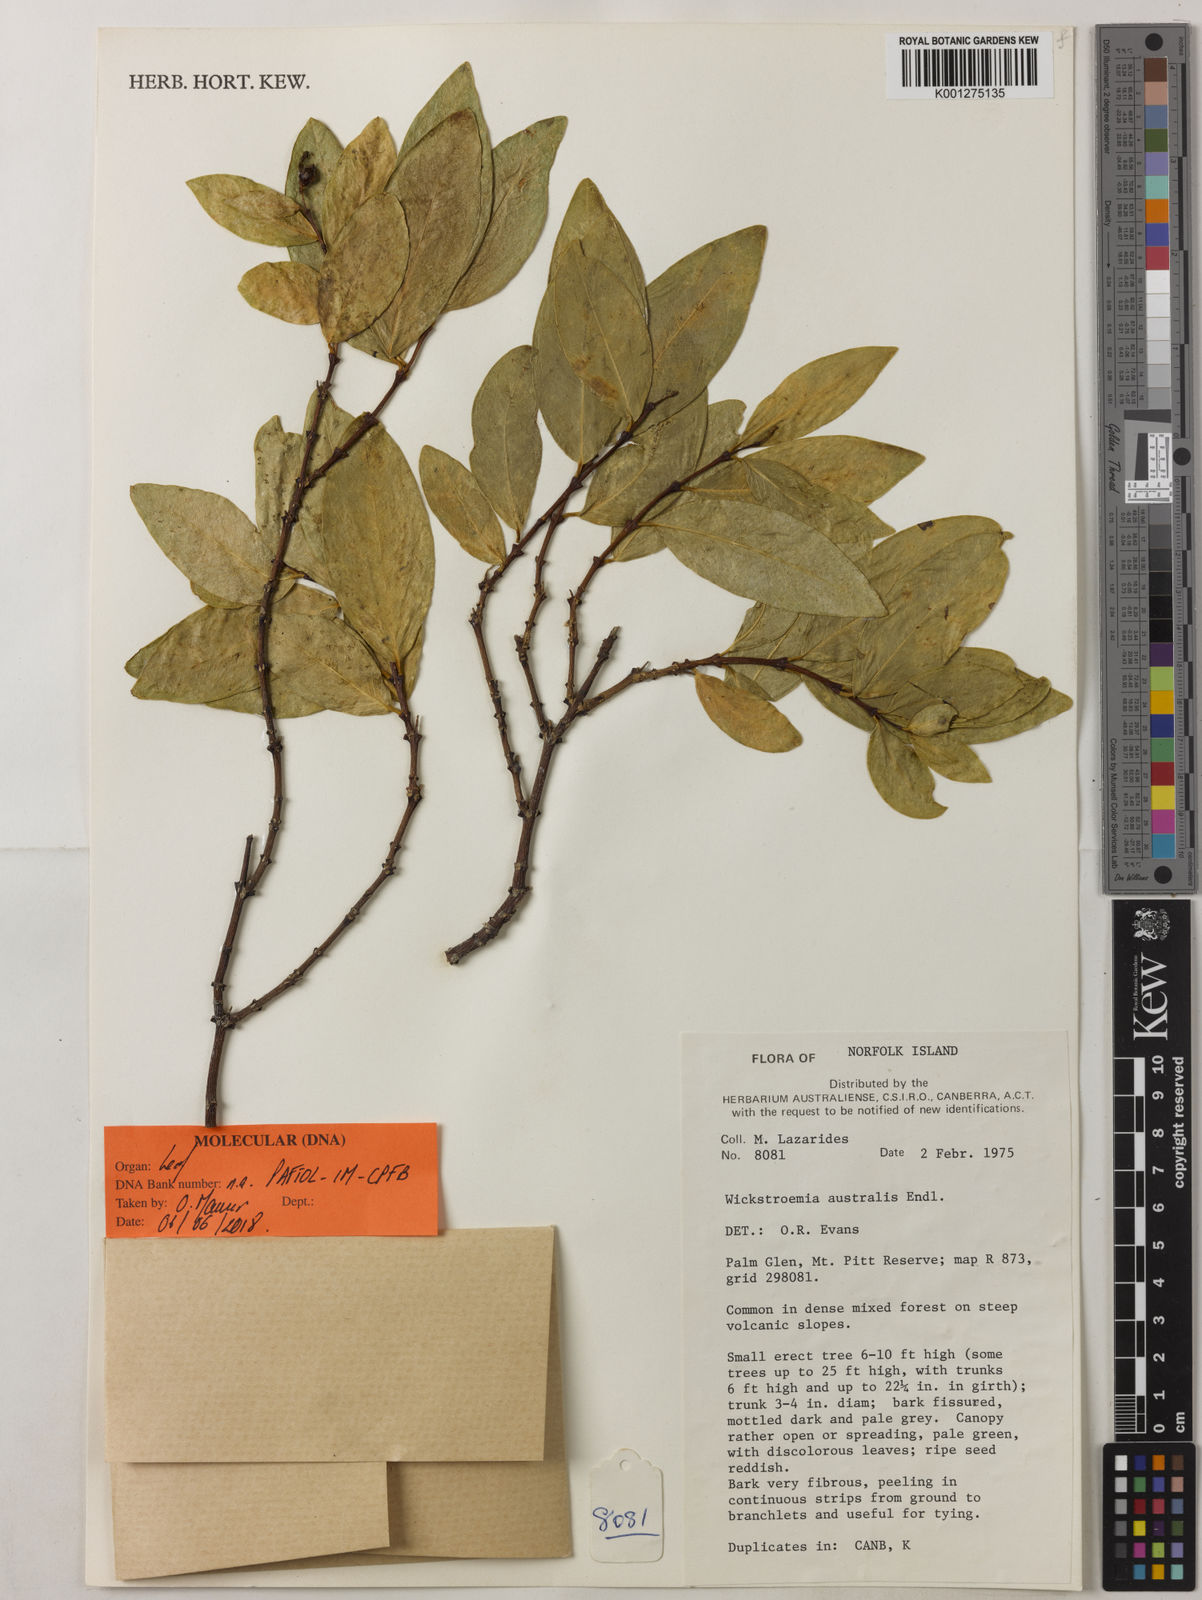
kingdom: Plantae
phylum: Tracheophyta
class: Magnoliopsida
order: Malvales
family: Thymelaeaceae
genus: Wikstroemia
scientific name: Wikstroemia australis
